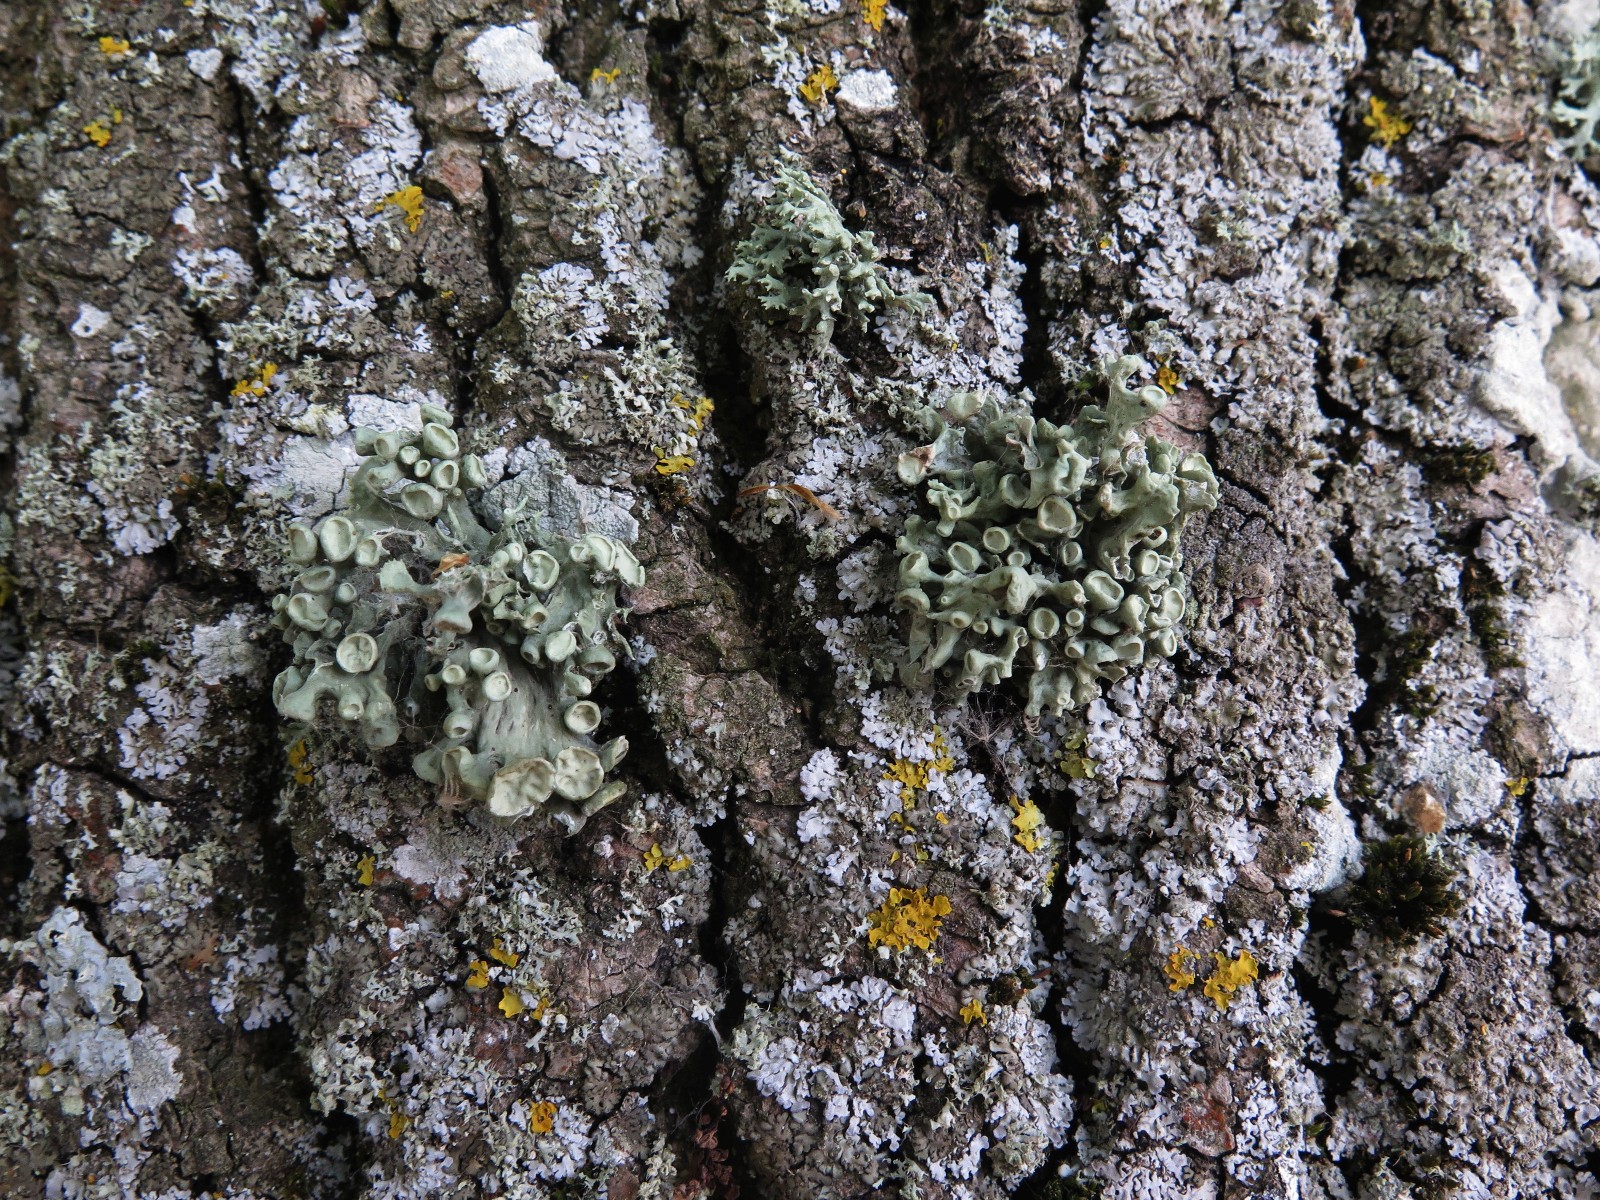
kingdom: Fungi
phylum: Ascomycota
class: Lecanoromycetes
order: Lecanorales
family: Ramalinaceae
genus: Ramalina
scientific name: Ramalina fastigiata
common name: tue-grenlav
